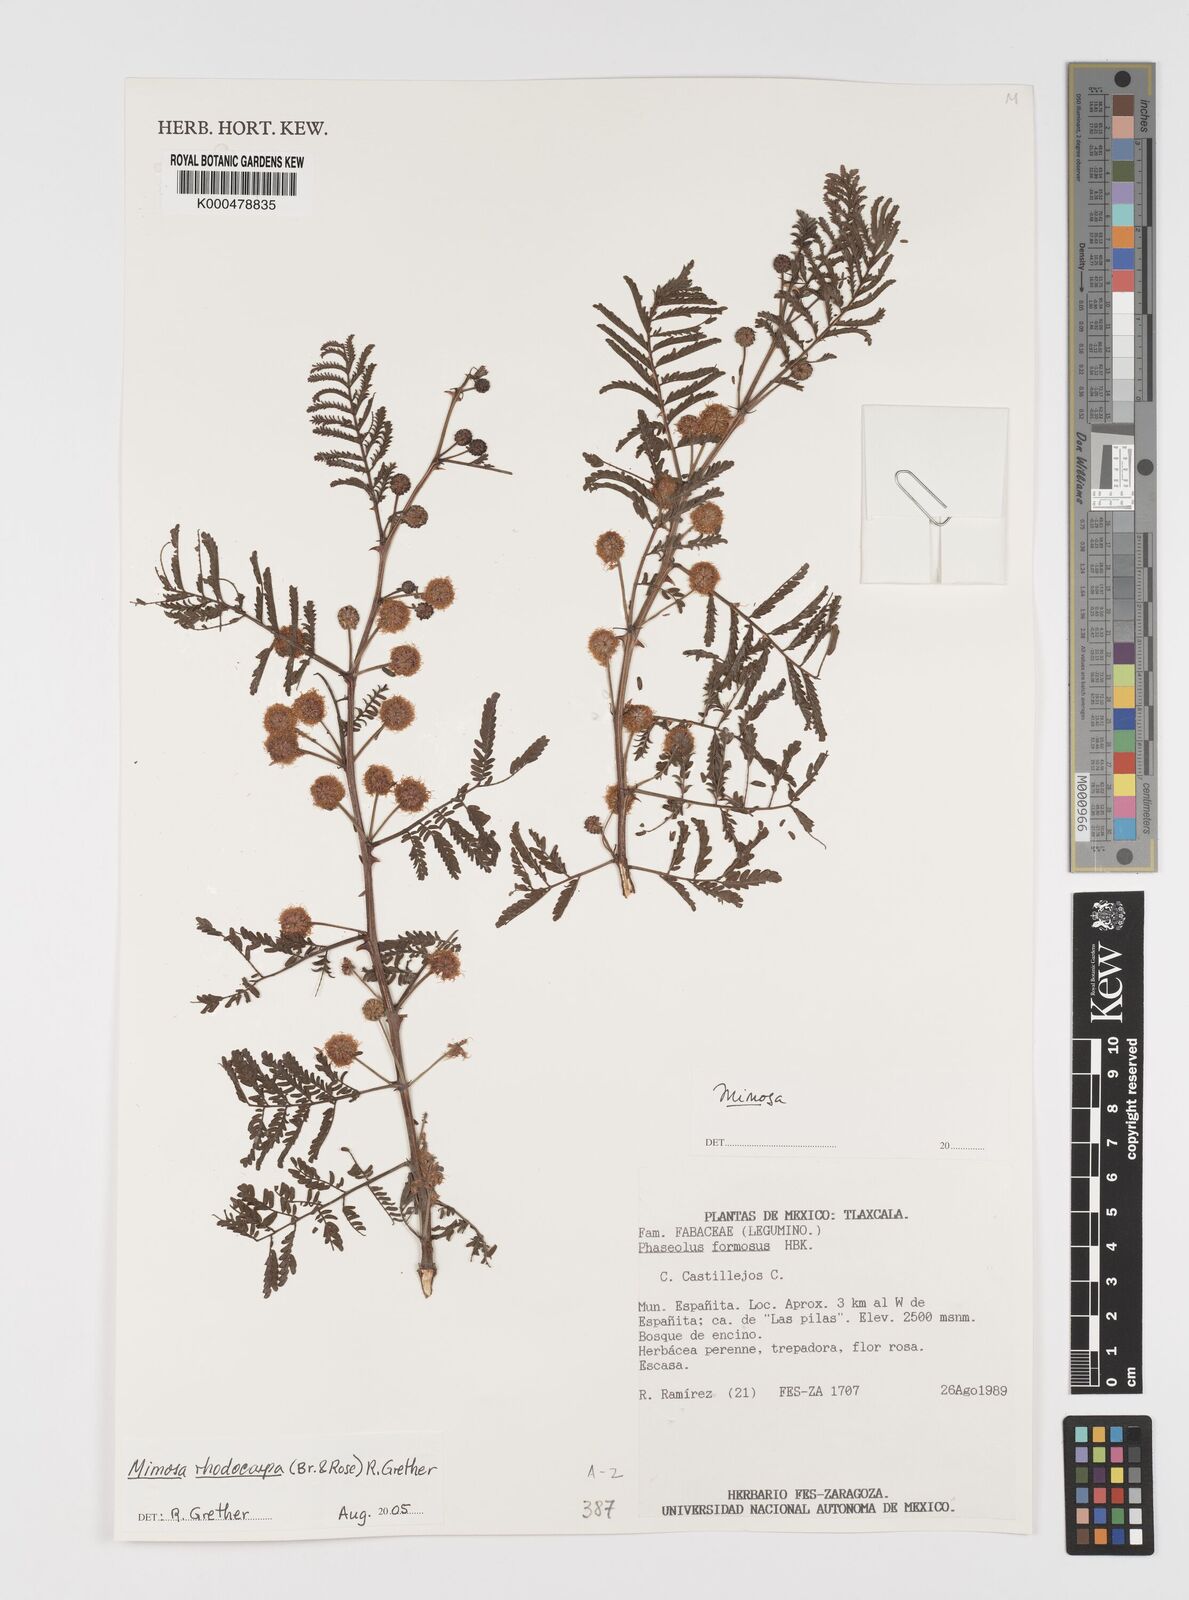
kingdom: Plantae
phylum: Tracheophyta
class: Magnoliopsida
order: Fabales
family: Fabaceae
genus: Mimosa
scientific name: Mimosa rhodocarpa
